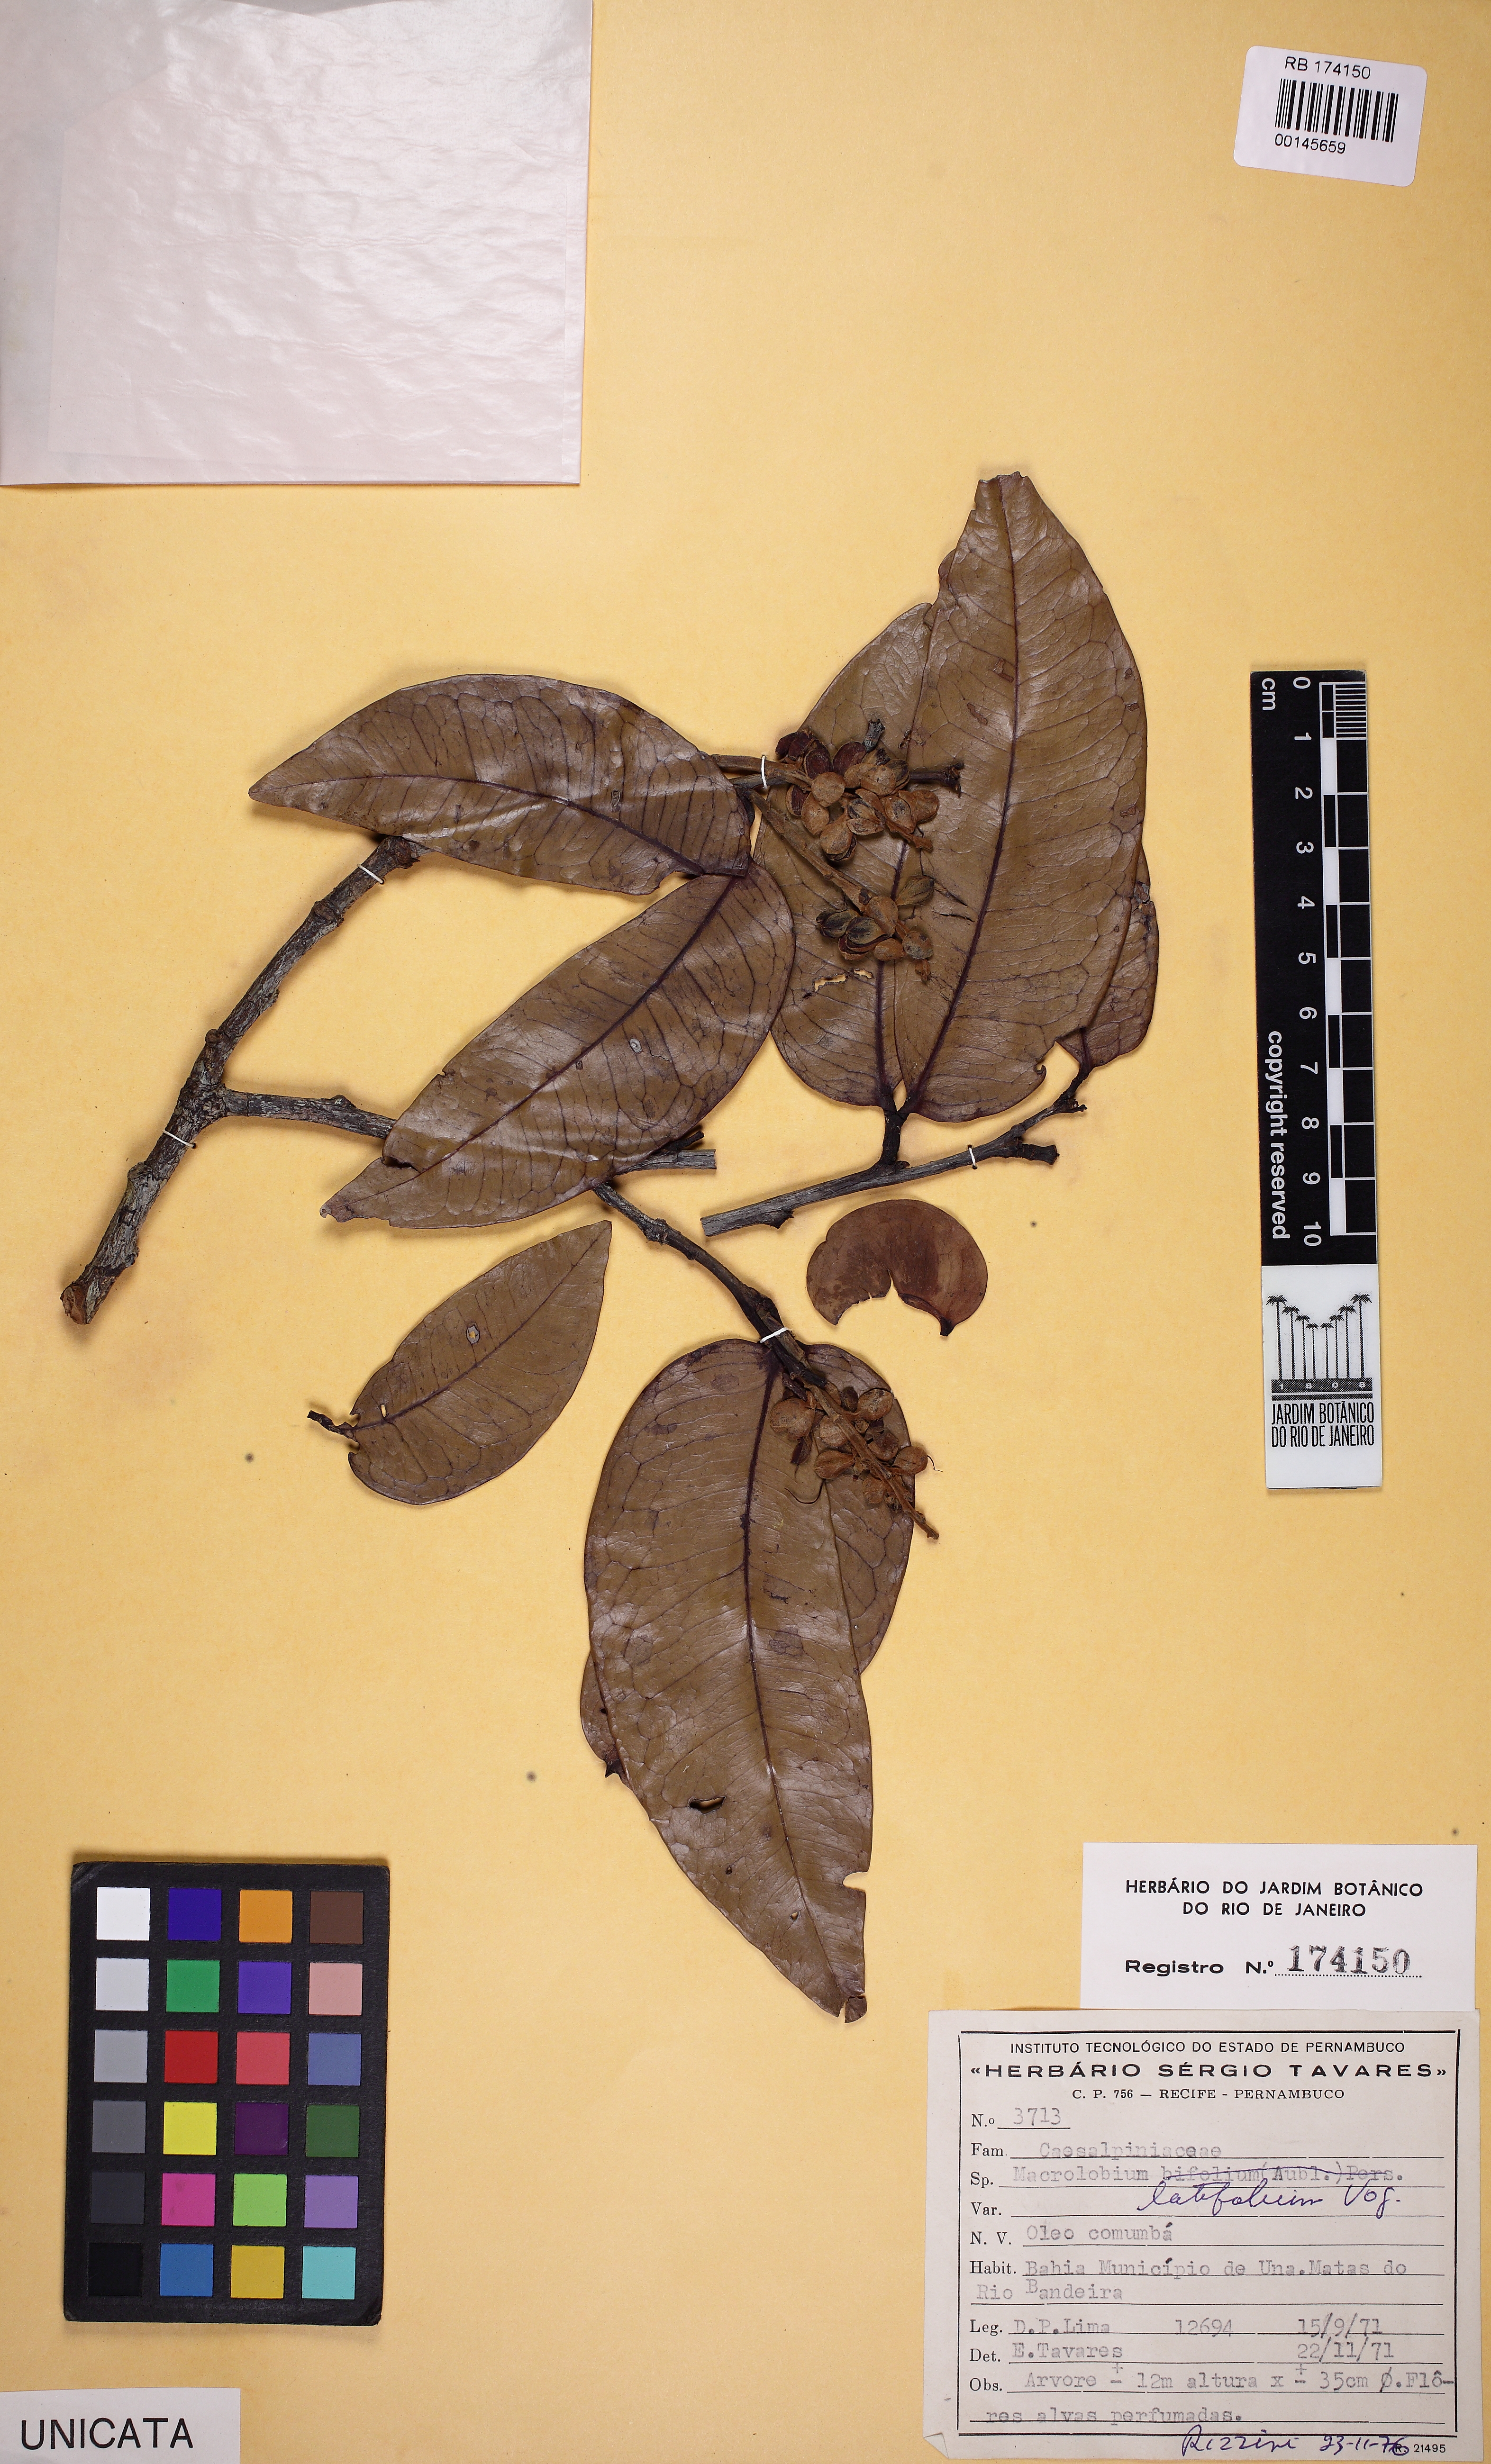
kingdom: Plantae
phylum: Tracheophyta
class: Magnoliopsida
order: Fabales
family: Fabaceae
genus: Macrolobium
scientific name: Macrolobium
